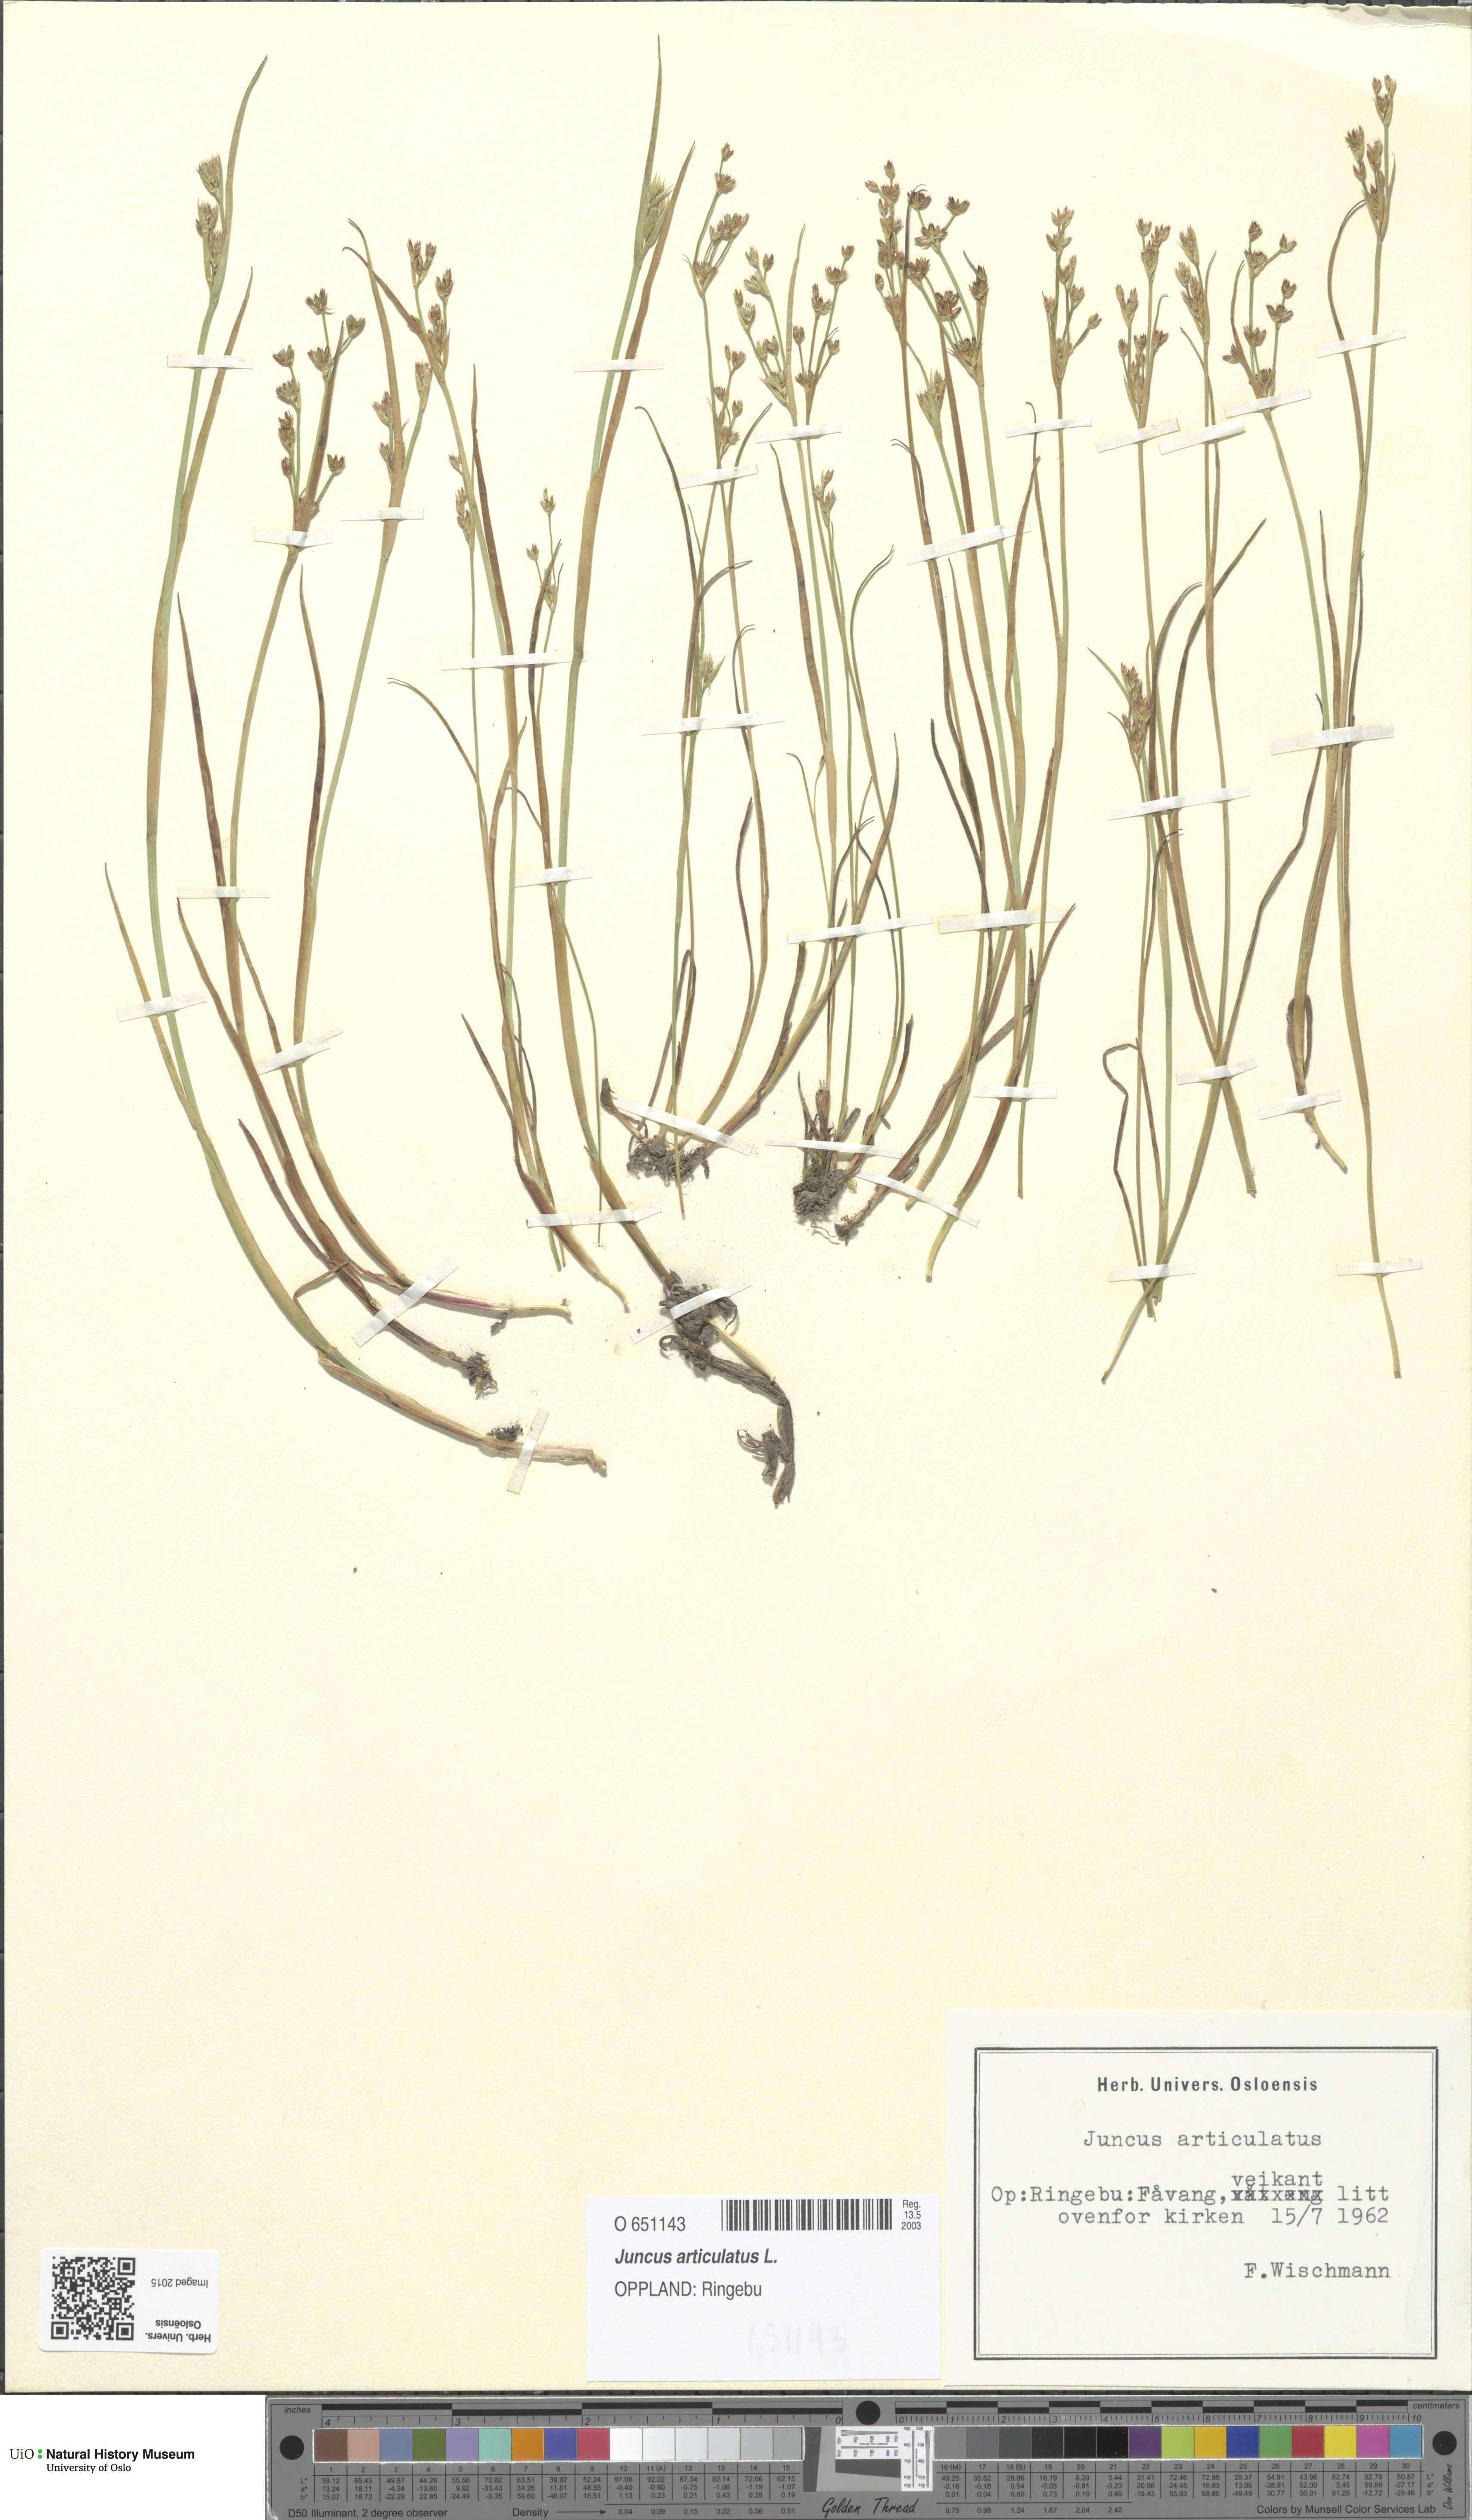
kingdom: Plantae
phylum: Tracheophyta
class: Liliopsida
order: Poales
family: Juncaceae
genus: Juncus
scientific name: Juncus articulatus
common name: Jointed rush
